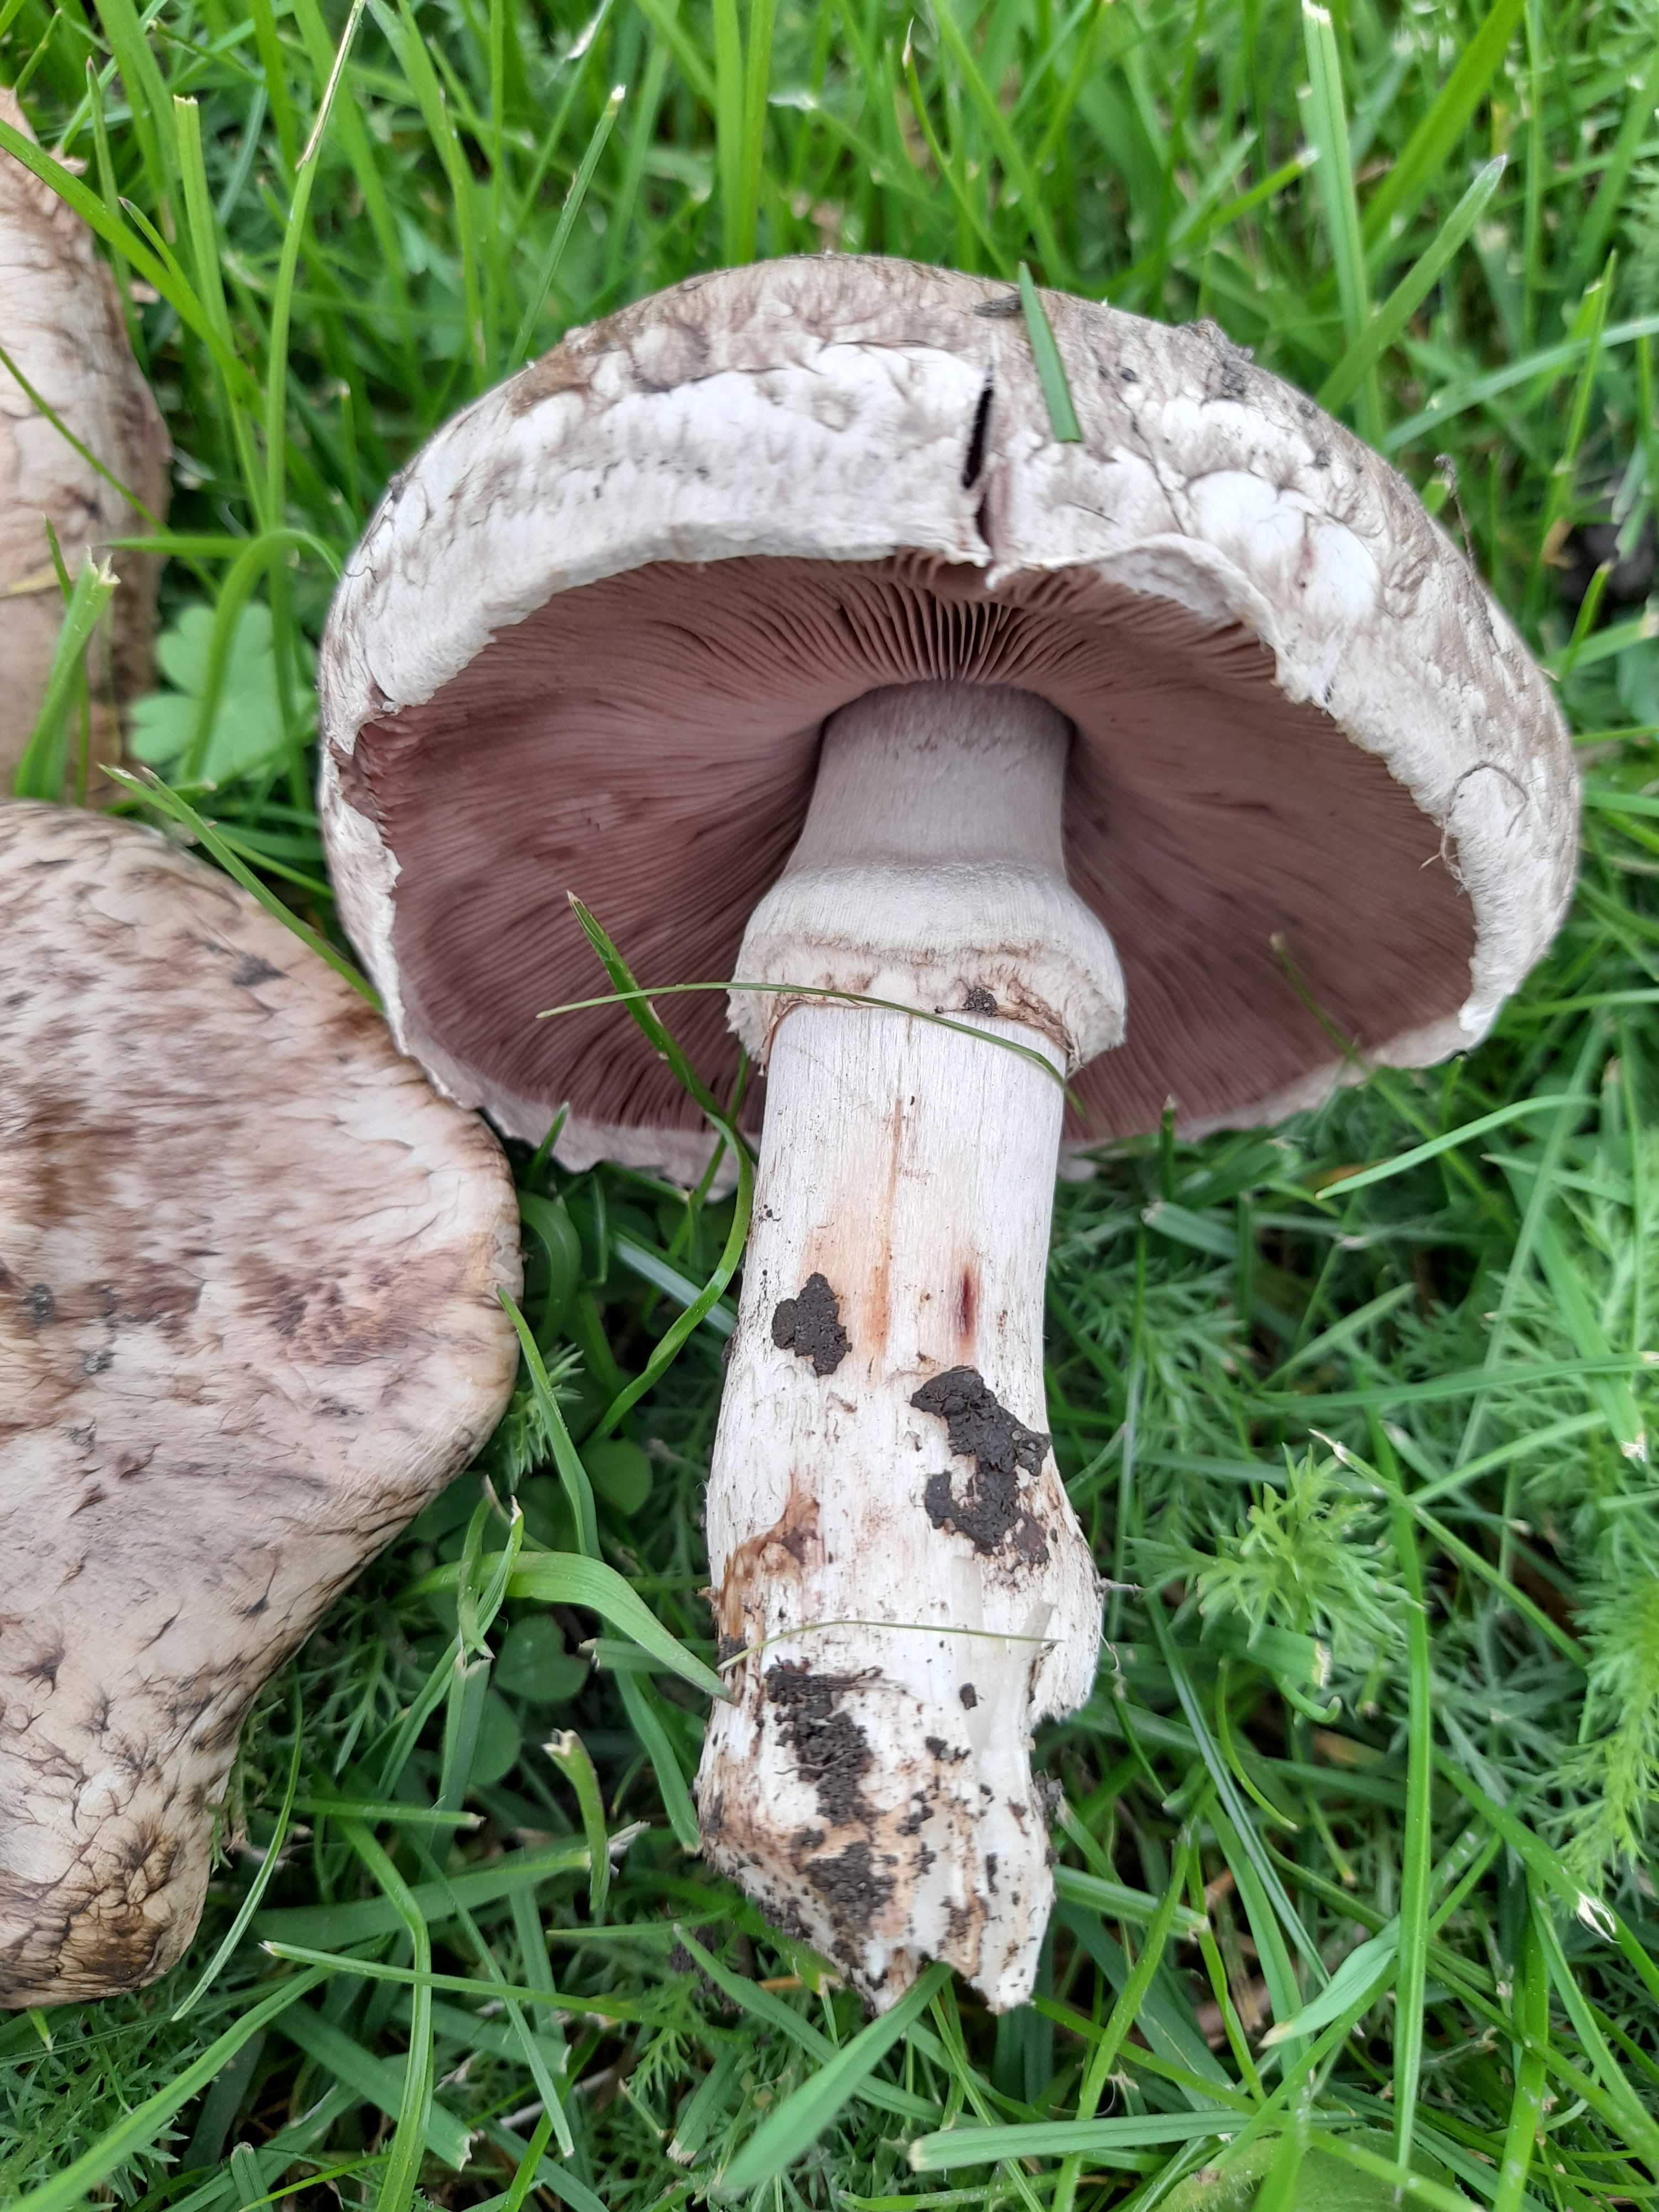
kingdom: Fungi
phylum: Basidiomycota
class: Agaricomycetes
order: Agaricales
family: Agaricaceae
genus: Agaricus
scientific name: Agaricus subperonatus
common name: knippe-champignon
